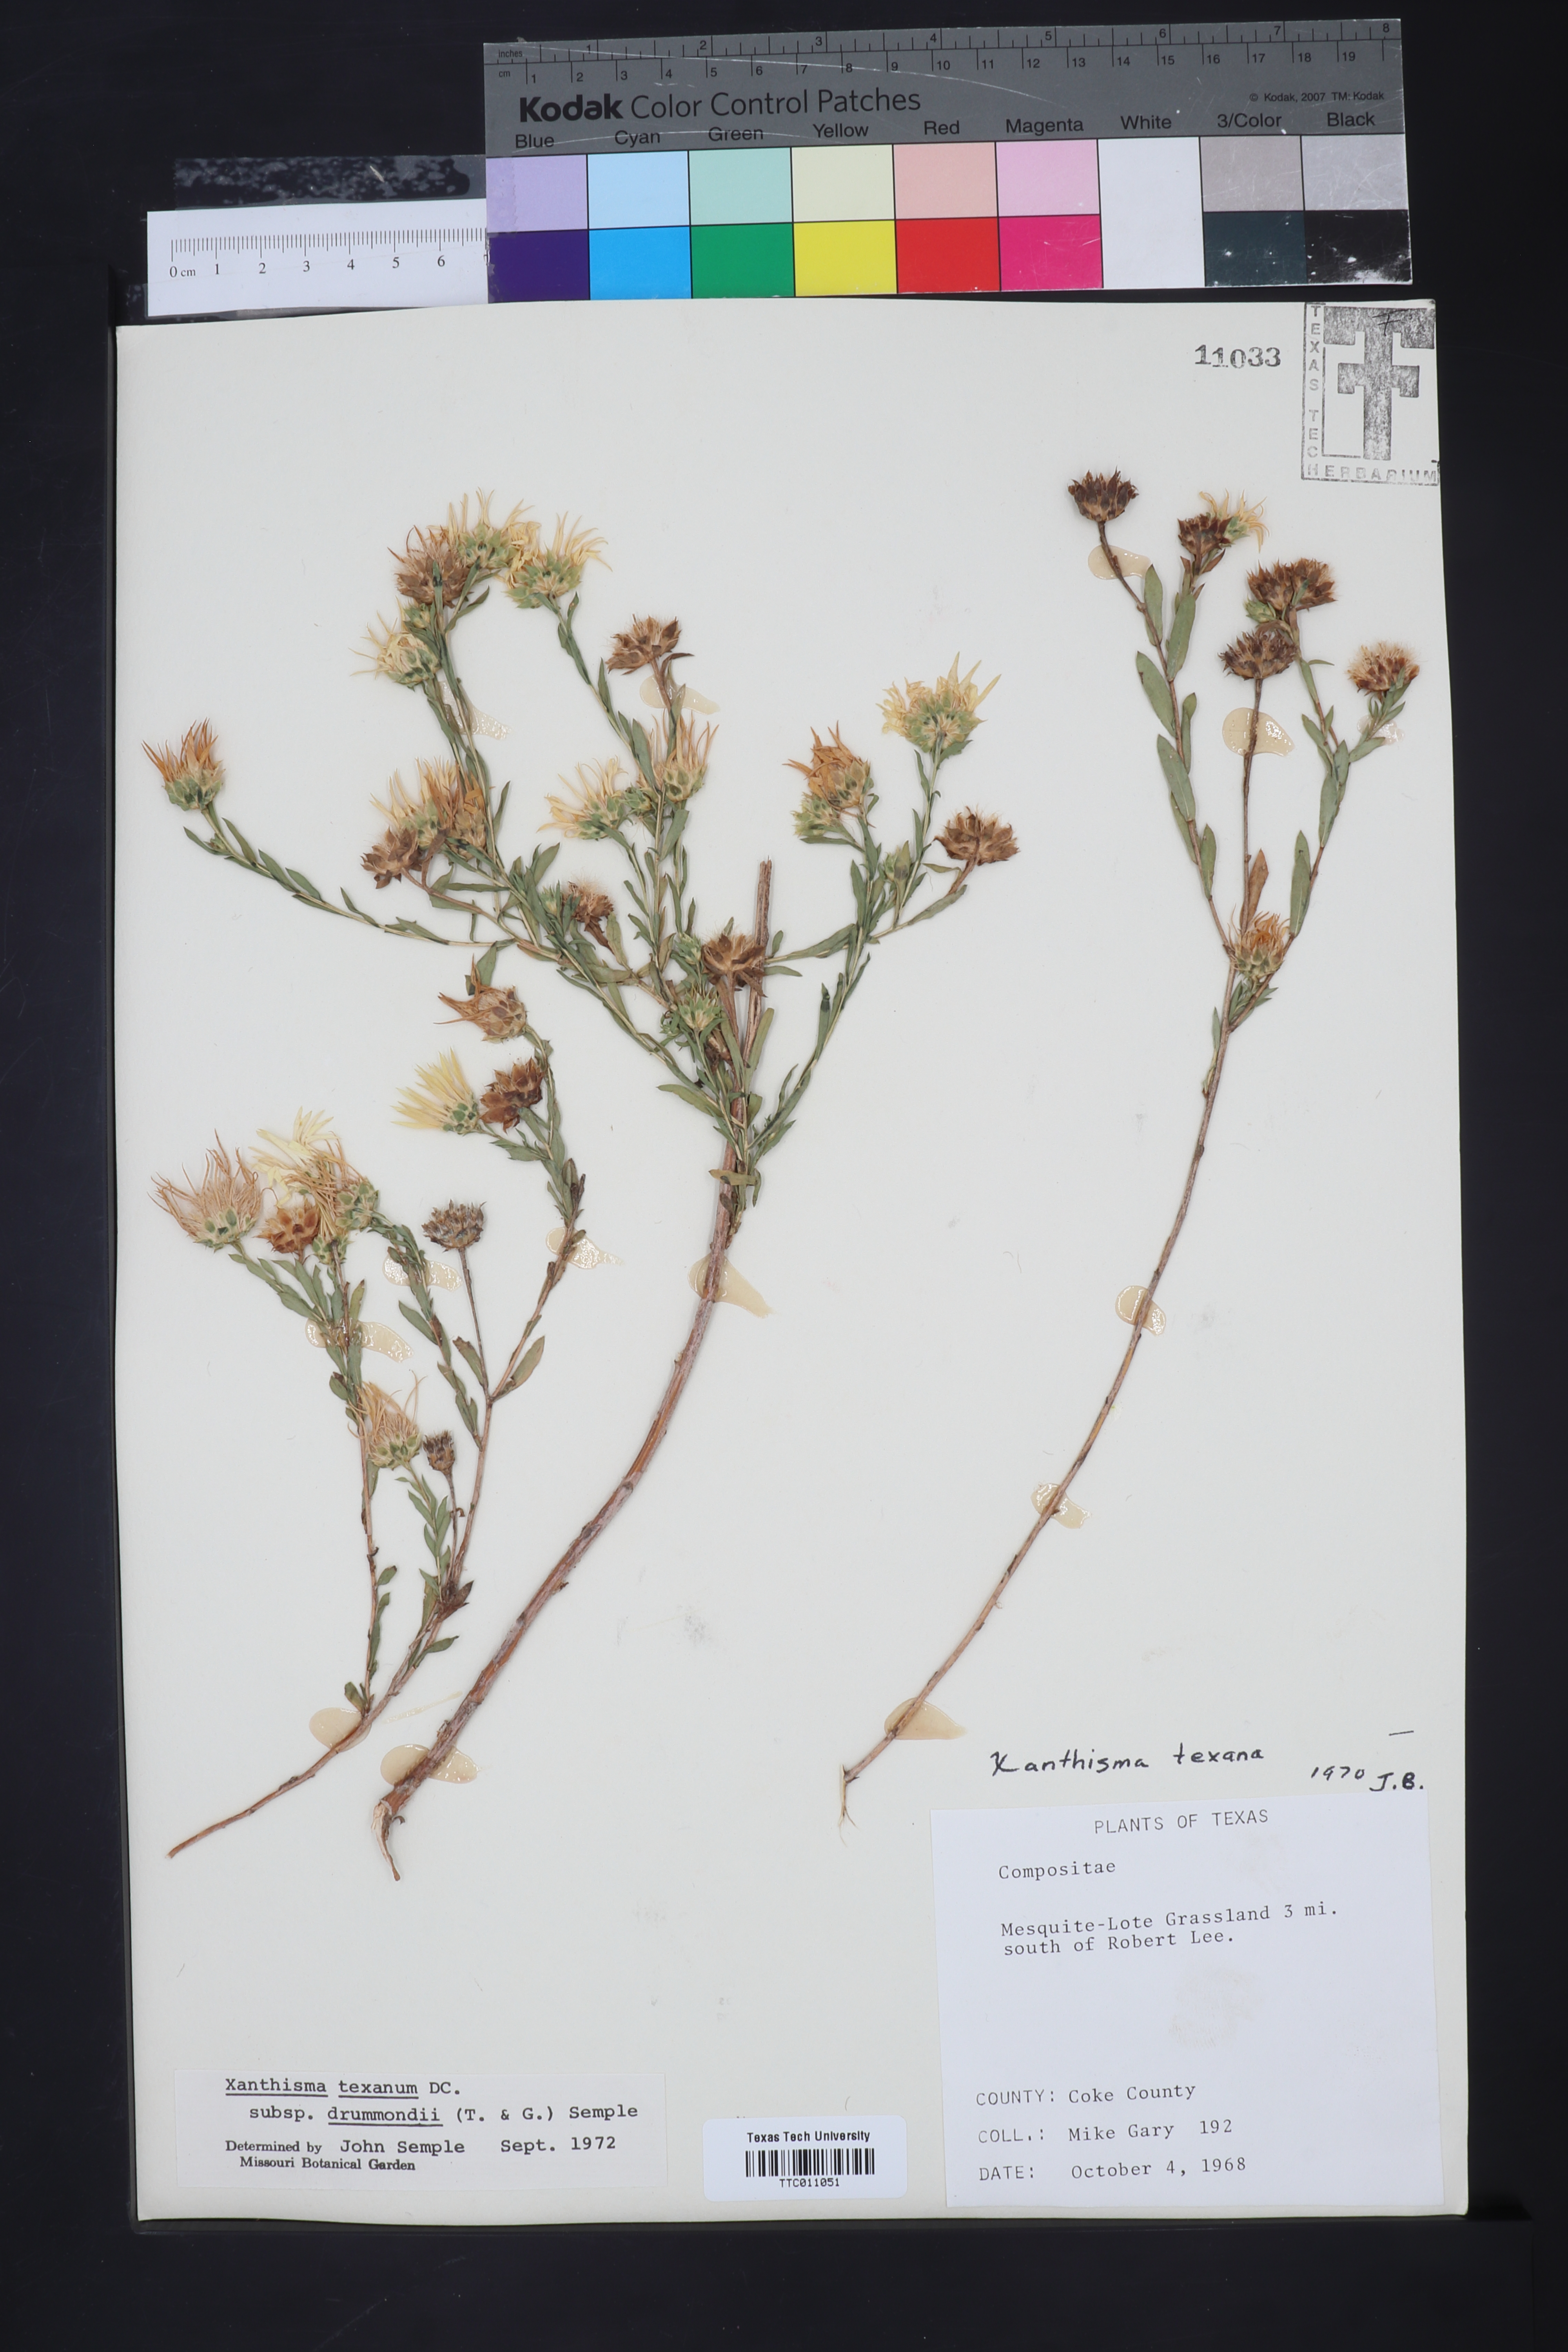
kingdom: Plantae
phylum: Tracheophyta
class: Magnoliopsida
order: Asterales
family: Asteraceae
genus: Xanthisma
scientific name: Xanthisma texanum
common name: Texas sleepy daisy
